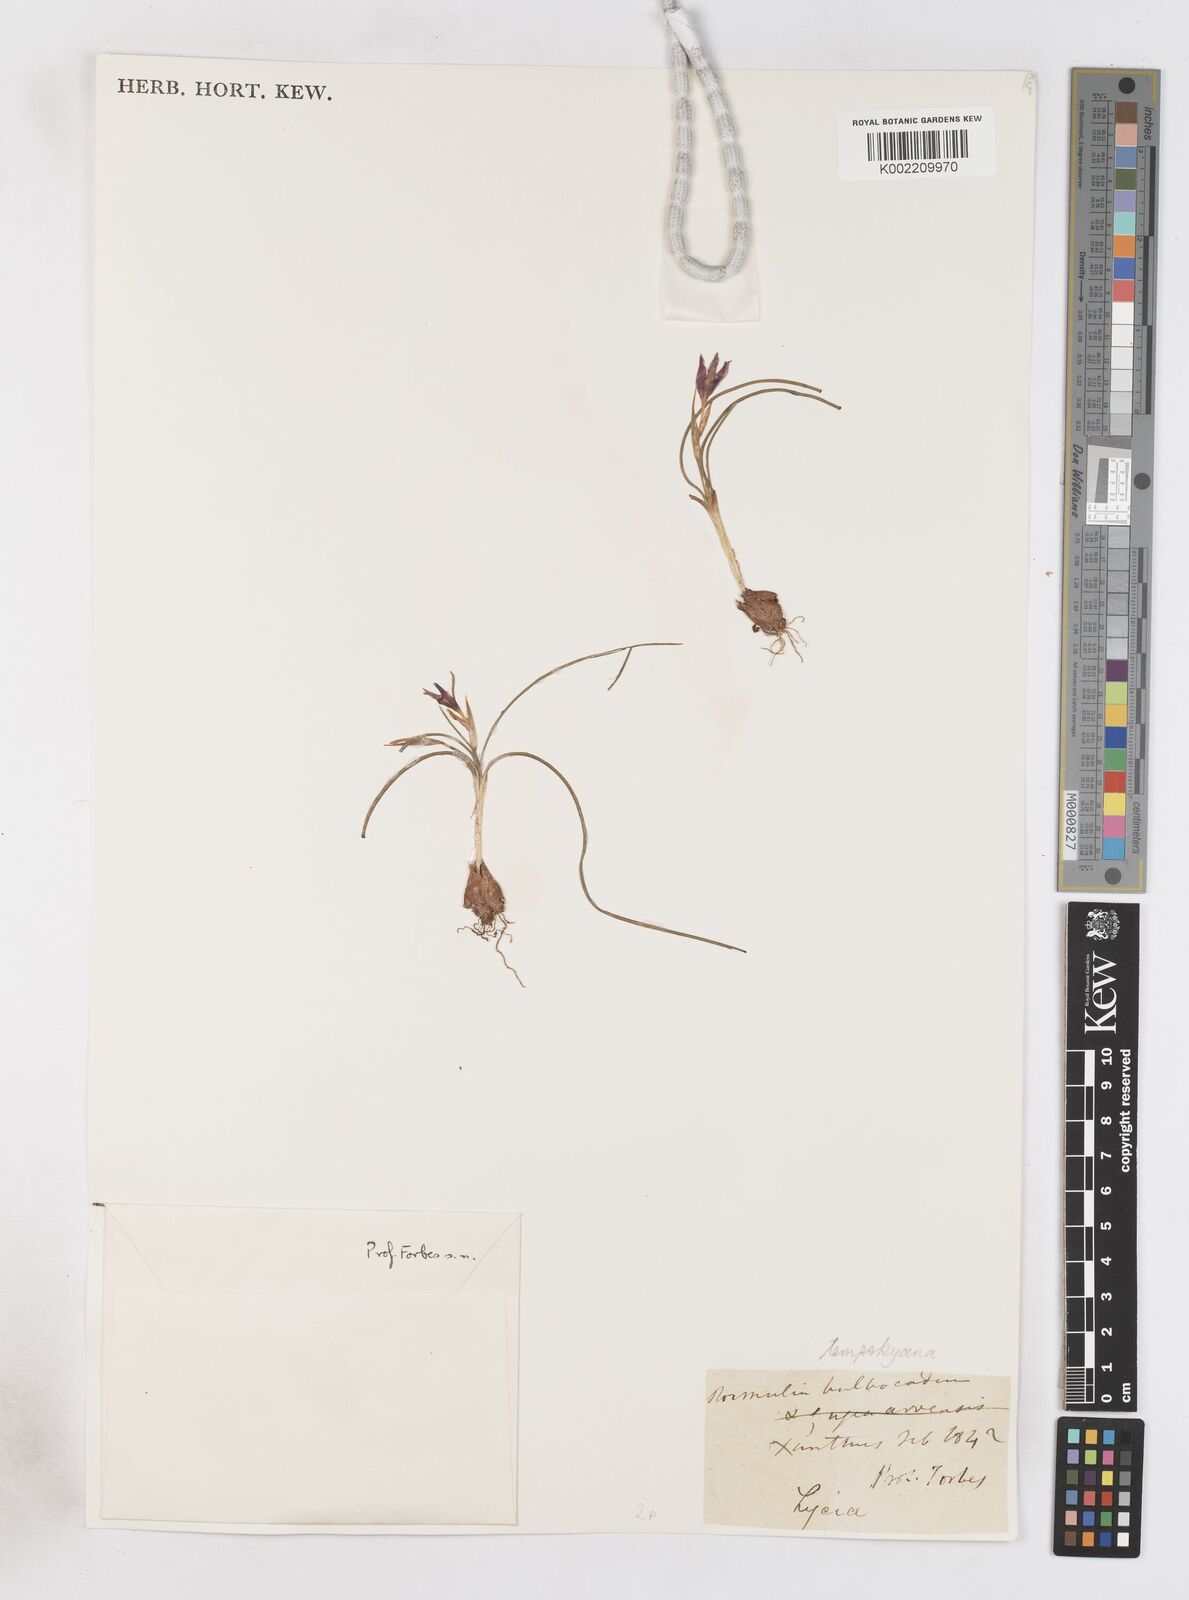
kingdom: Plantae
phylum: Tracheophyta
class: Liliopsida
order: Asparagales
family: Iridaceae
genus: Romulea
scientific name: Romulea tempskyana
